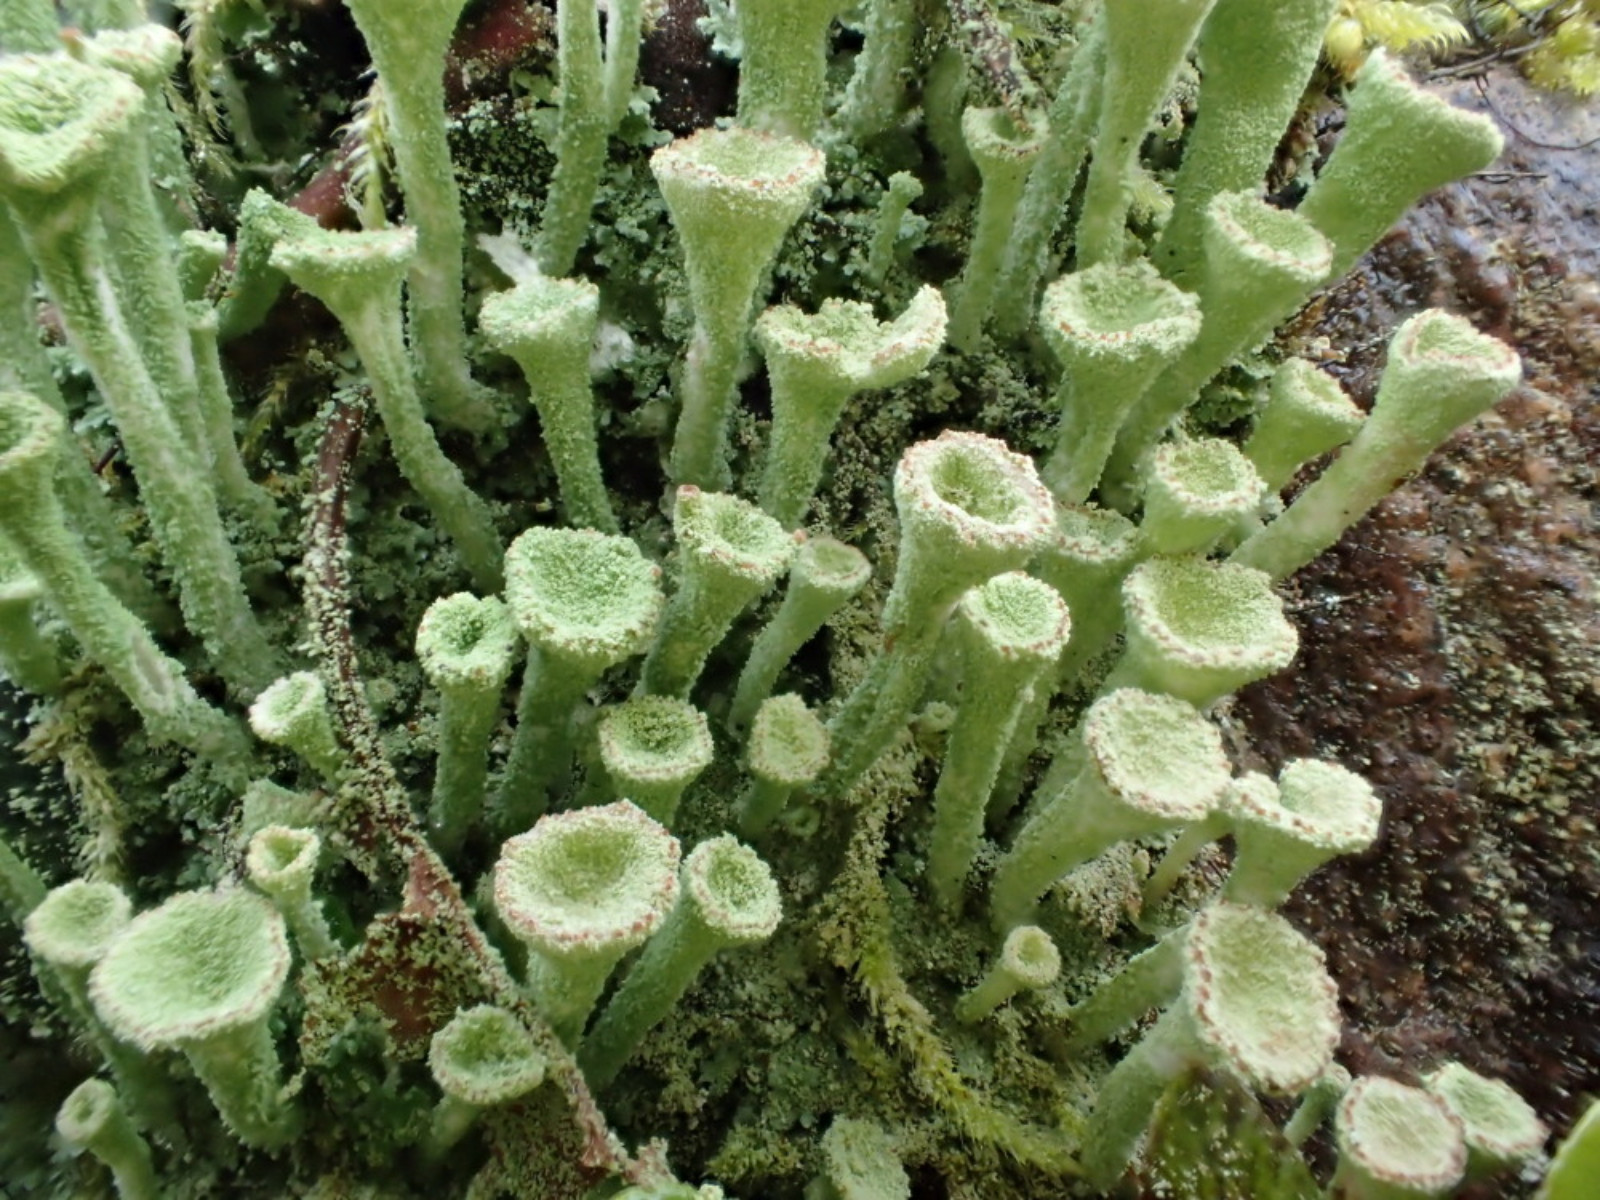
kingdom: Fungi
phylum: Ascomycota
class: Lecanoromycetes
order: Lecanorales
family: Cladoniaceae
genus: Cladonia
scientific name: Cladonia fimbriata
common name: bleggrøn bægerlav
